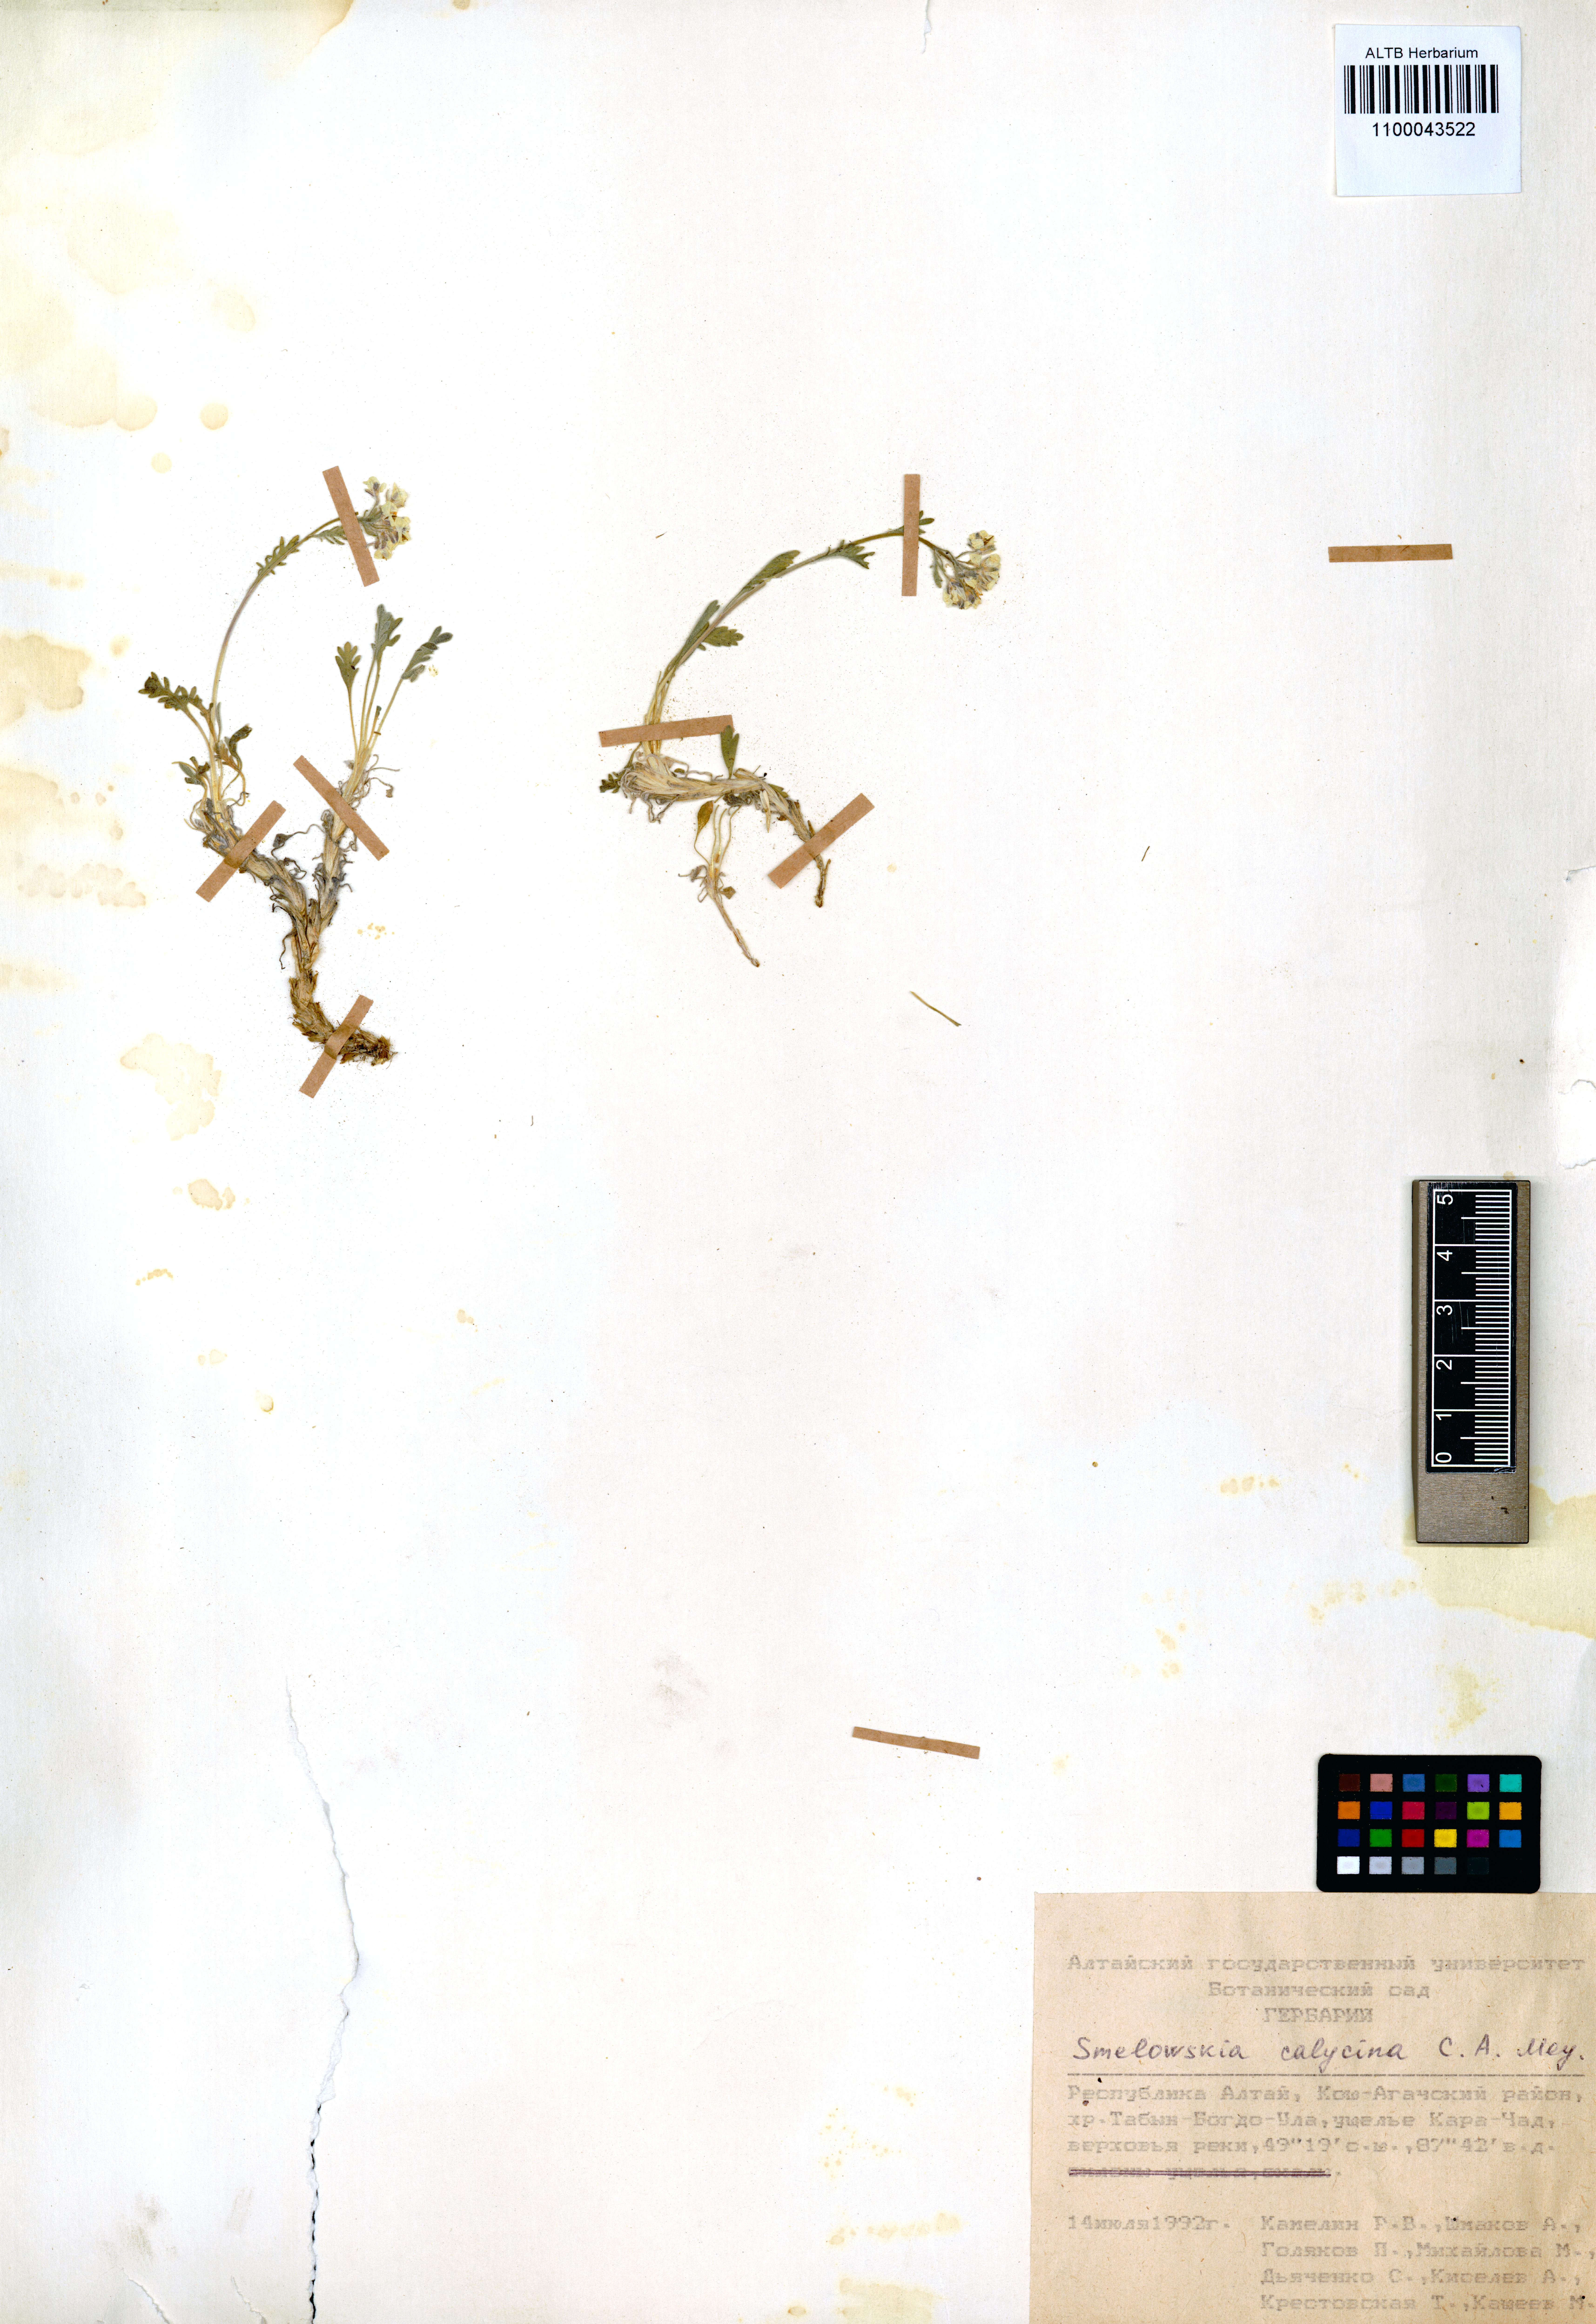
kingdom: Plantae
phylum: Tracheophyta
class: Magnoliopsida
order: Brassicales
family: Brassicaceae
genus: Smelowskia
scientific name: Smelowskia calycina
